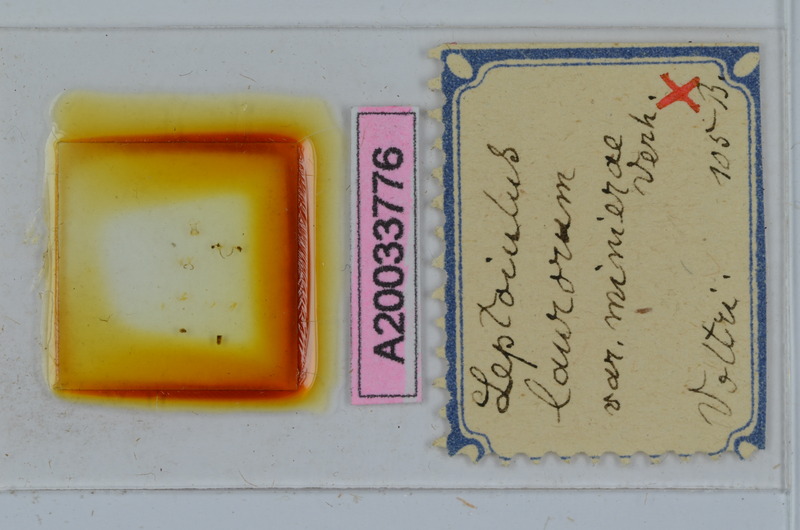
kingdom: Animalia
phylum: Arthropoda
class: Diplopoda
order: Julida
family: Julidae
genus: Leptoiulus
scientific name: Leptoiulus laurorum
